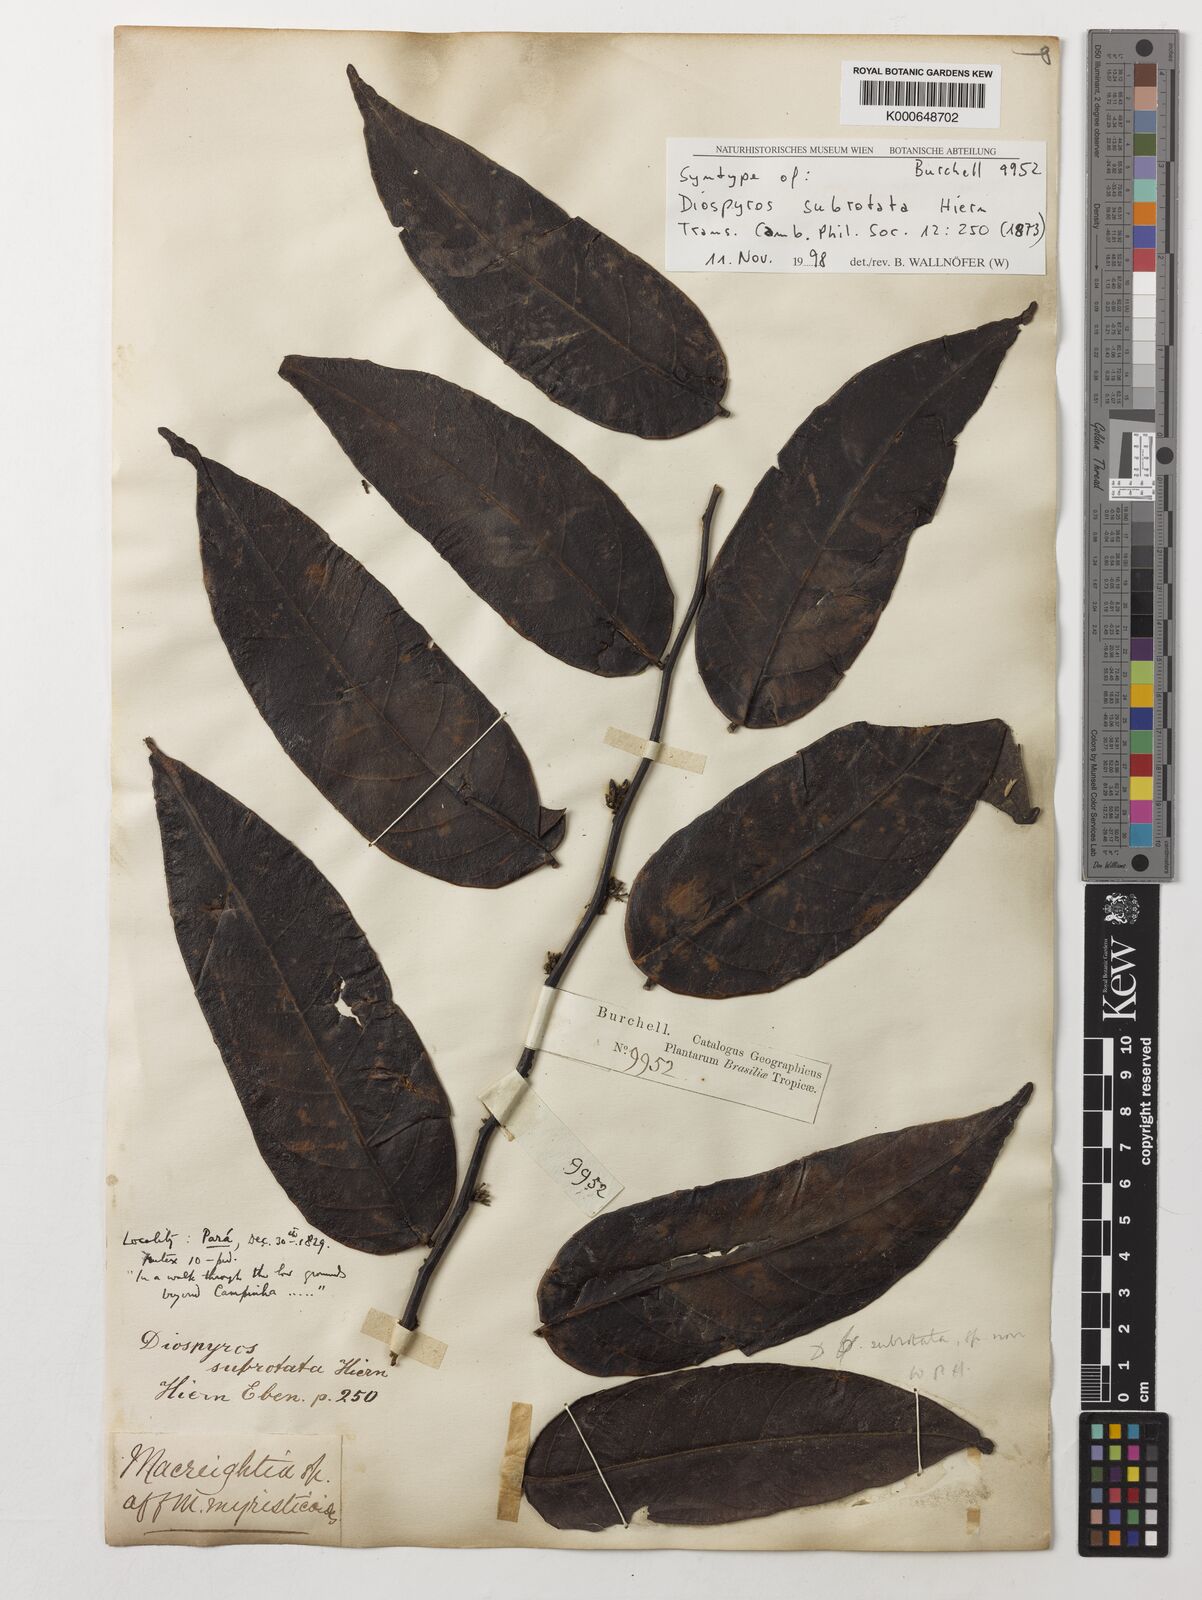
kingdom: Plantae
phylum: Tracheophyta
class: Magnoliopsida
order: Ericales
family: Ebenaceae
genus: Diospyros
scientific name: Diospyros subrotata
